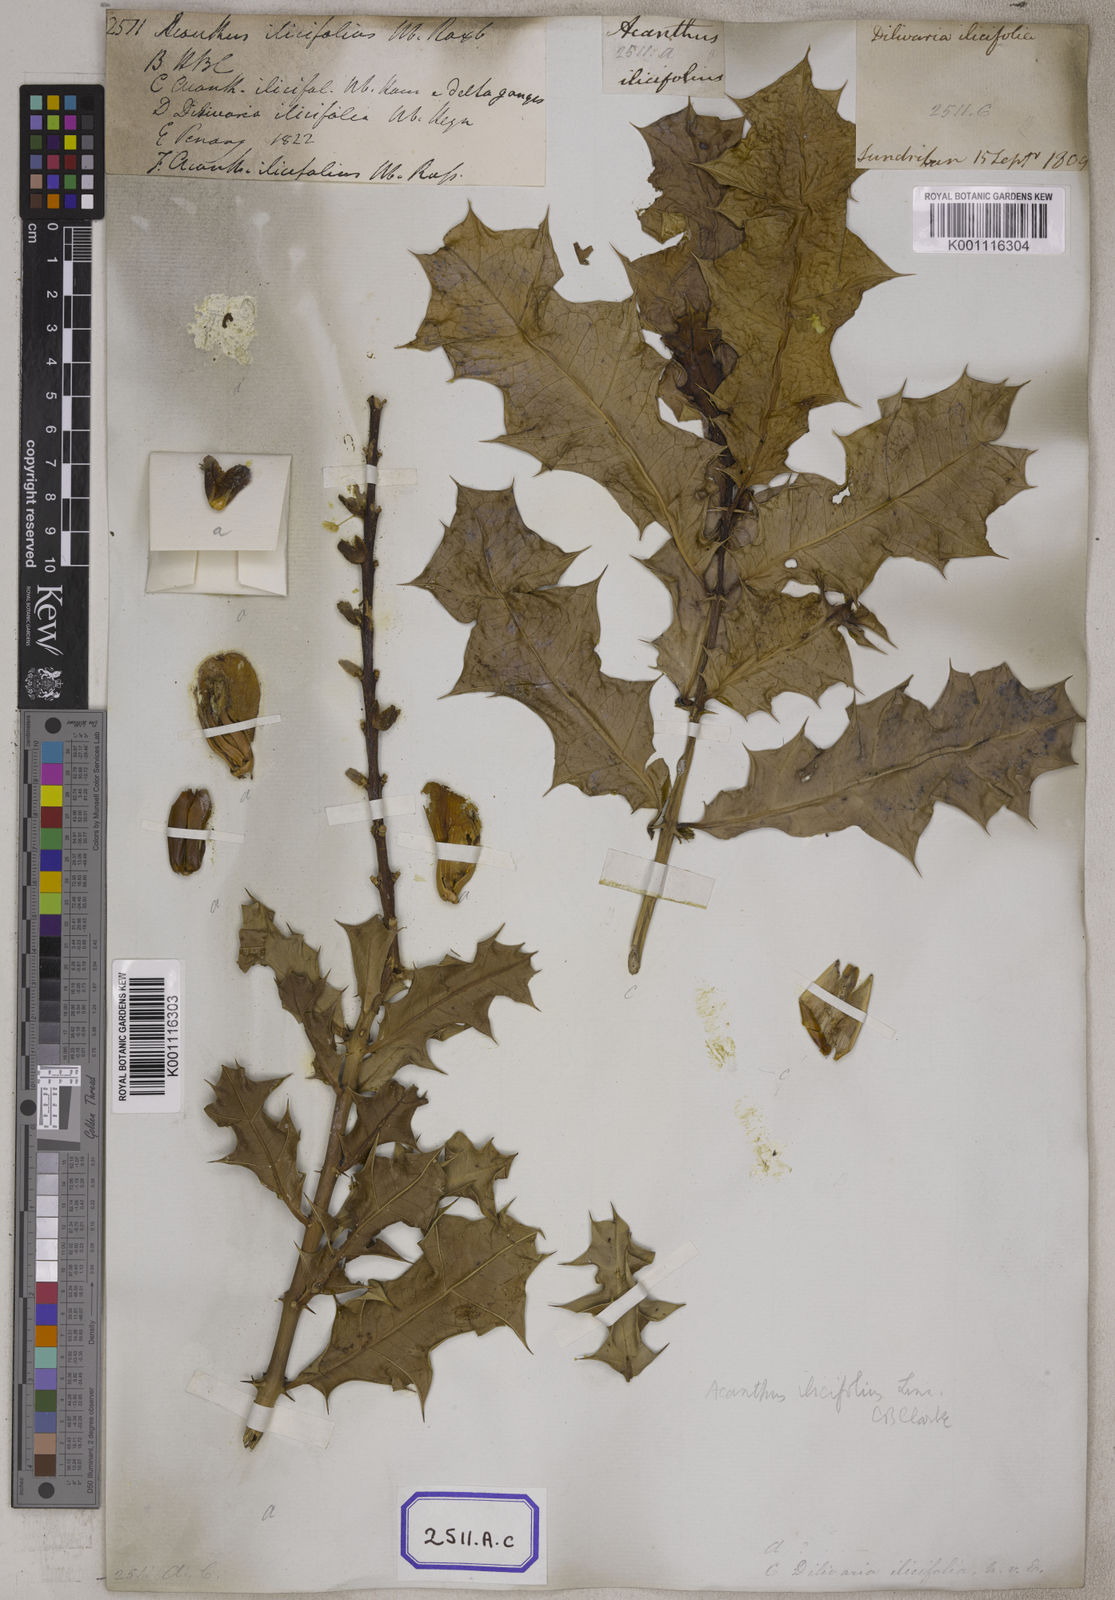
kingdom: Plantae
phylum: Tracheophyta
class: Magnoliopsida
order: Lamiales
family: Acanthaceae
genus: Acanthus
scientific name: Acanthus ilicifolius
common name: Holy mangrove
